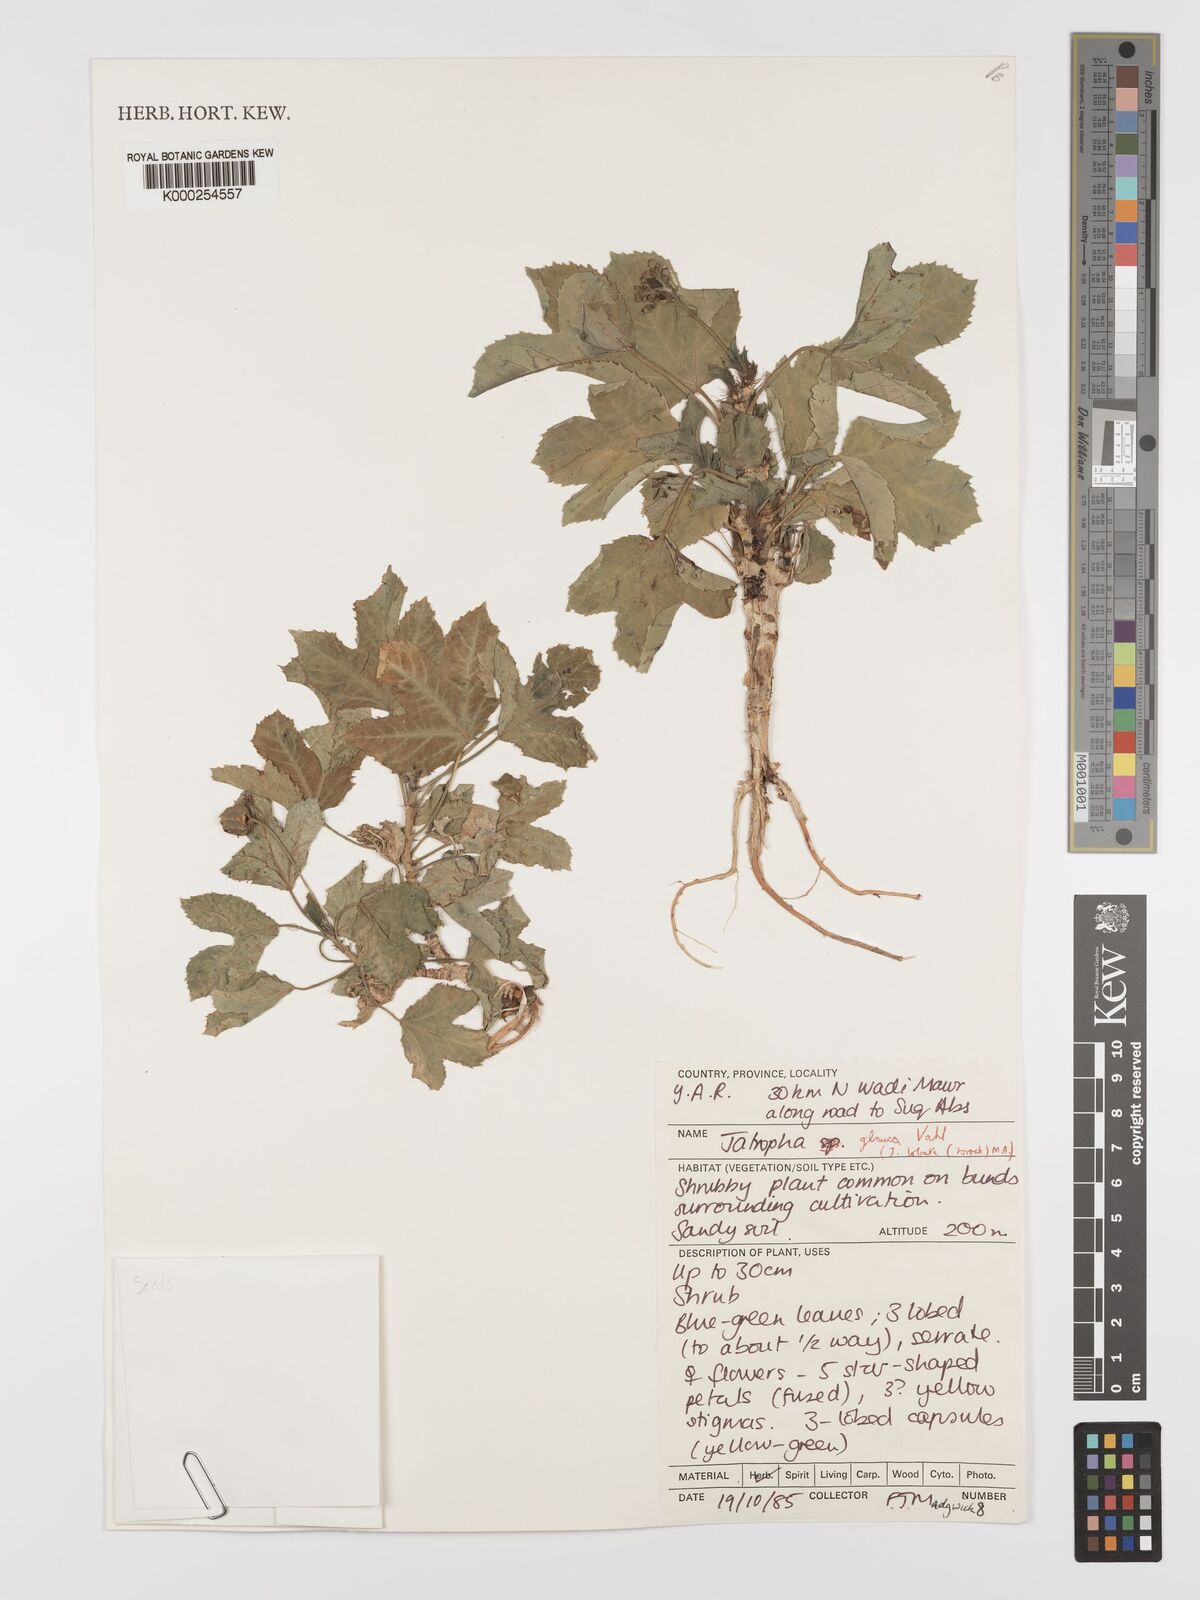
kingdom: Plantae
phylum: Tracheophyta
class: Magnoliopsida
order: Malpighiales
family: Euphorbiaceae
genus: Jatropha
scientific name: Jatropha glauca
